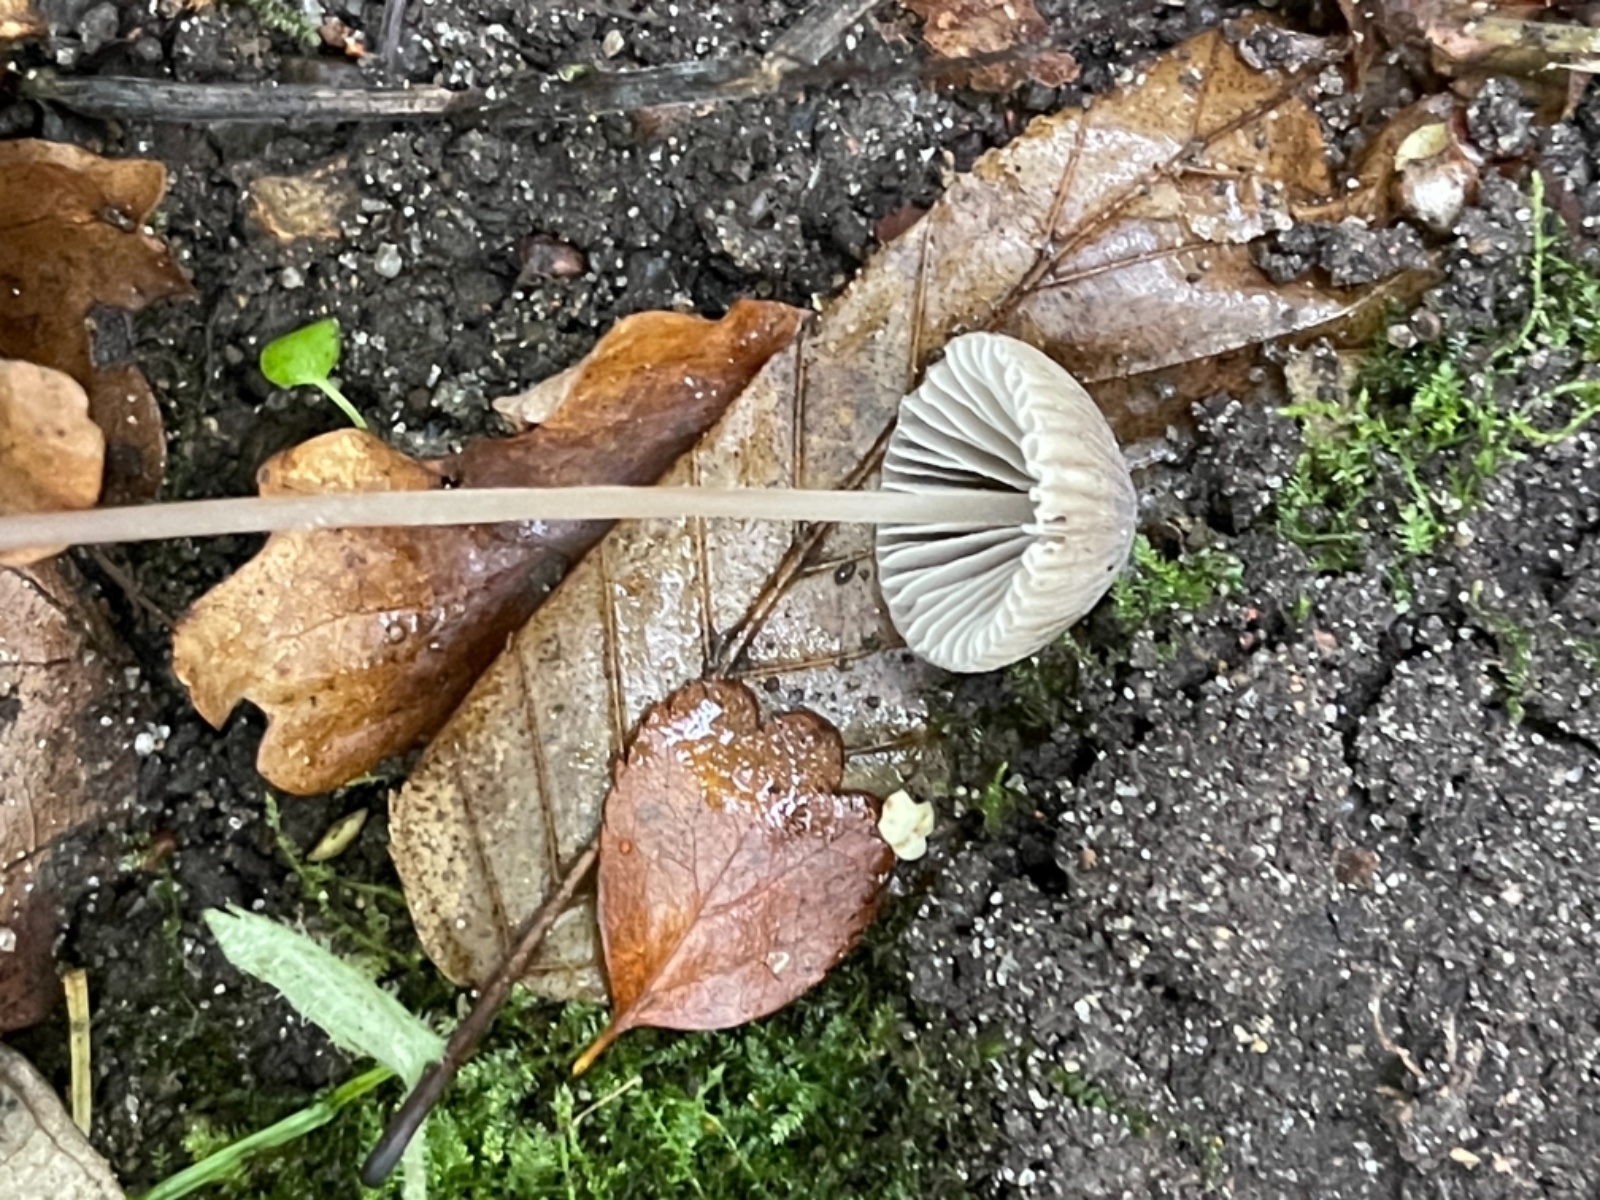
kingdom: Fungi
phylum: Basidiomycota
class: Agaricomycetes
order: Agaricales
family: Mycenaceae
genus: Mycena
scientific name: Mycena leptocephala
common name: klor-huesvamp
